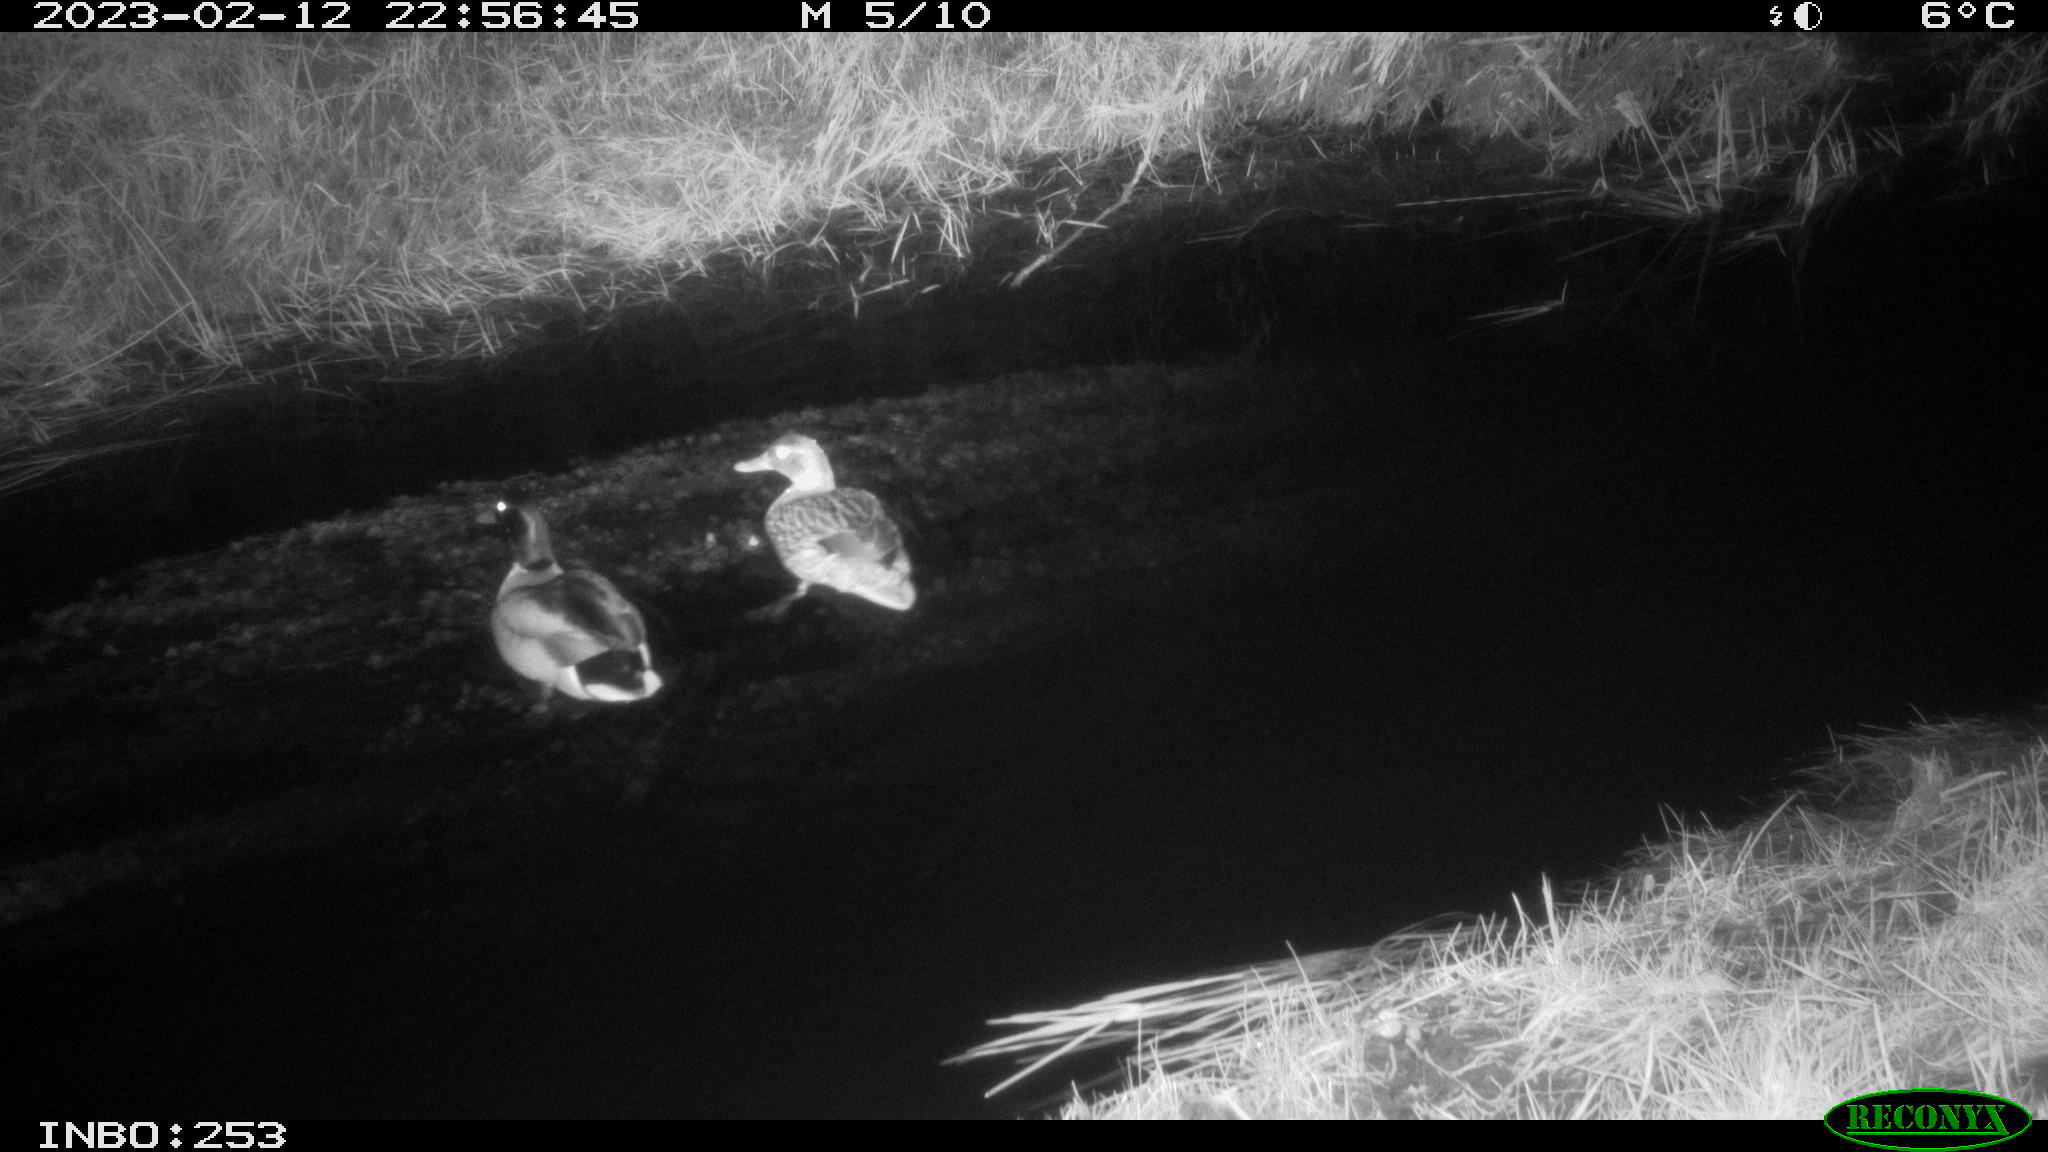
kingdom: Animalia
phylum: Chordata
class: Aves
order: Anseriformes
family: Anatidae
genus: Anas
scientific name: Anas
